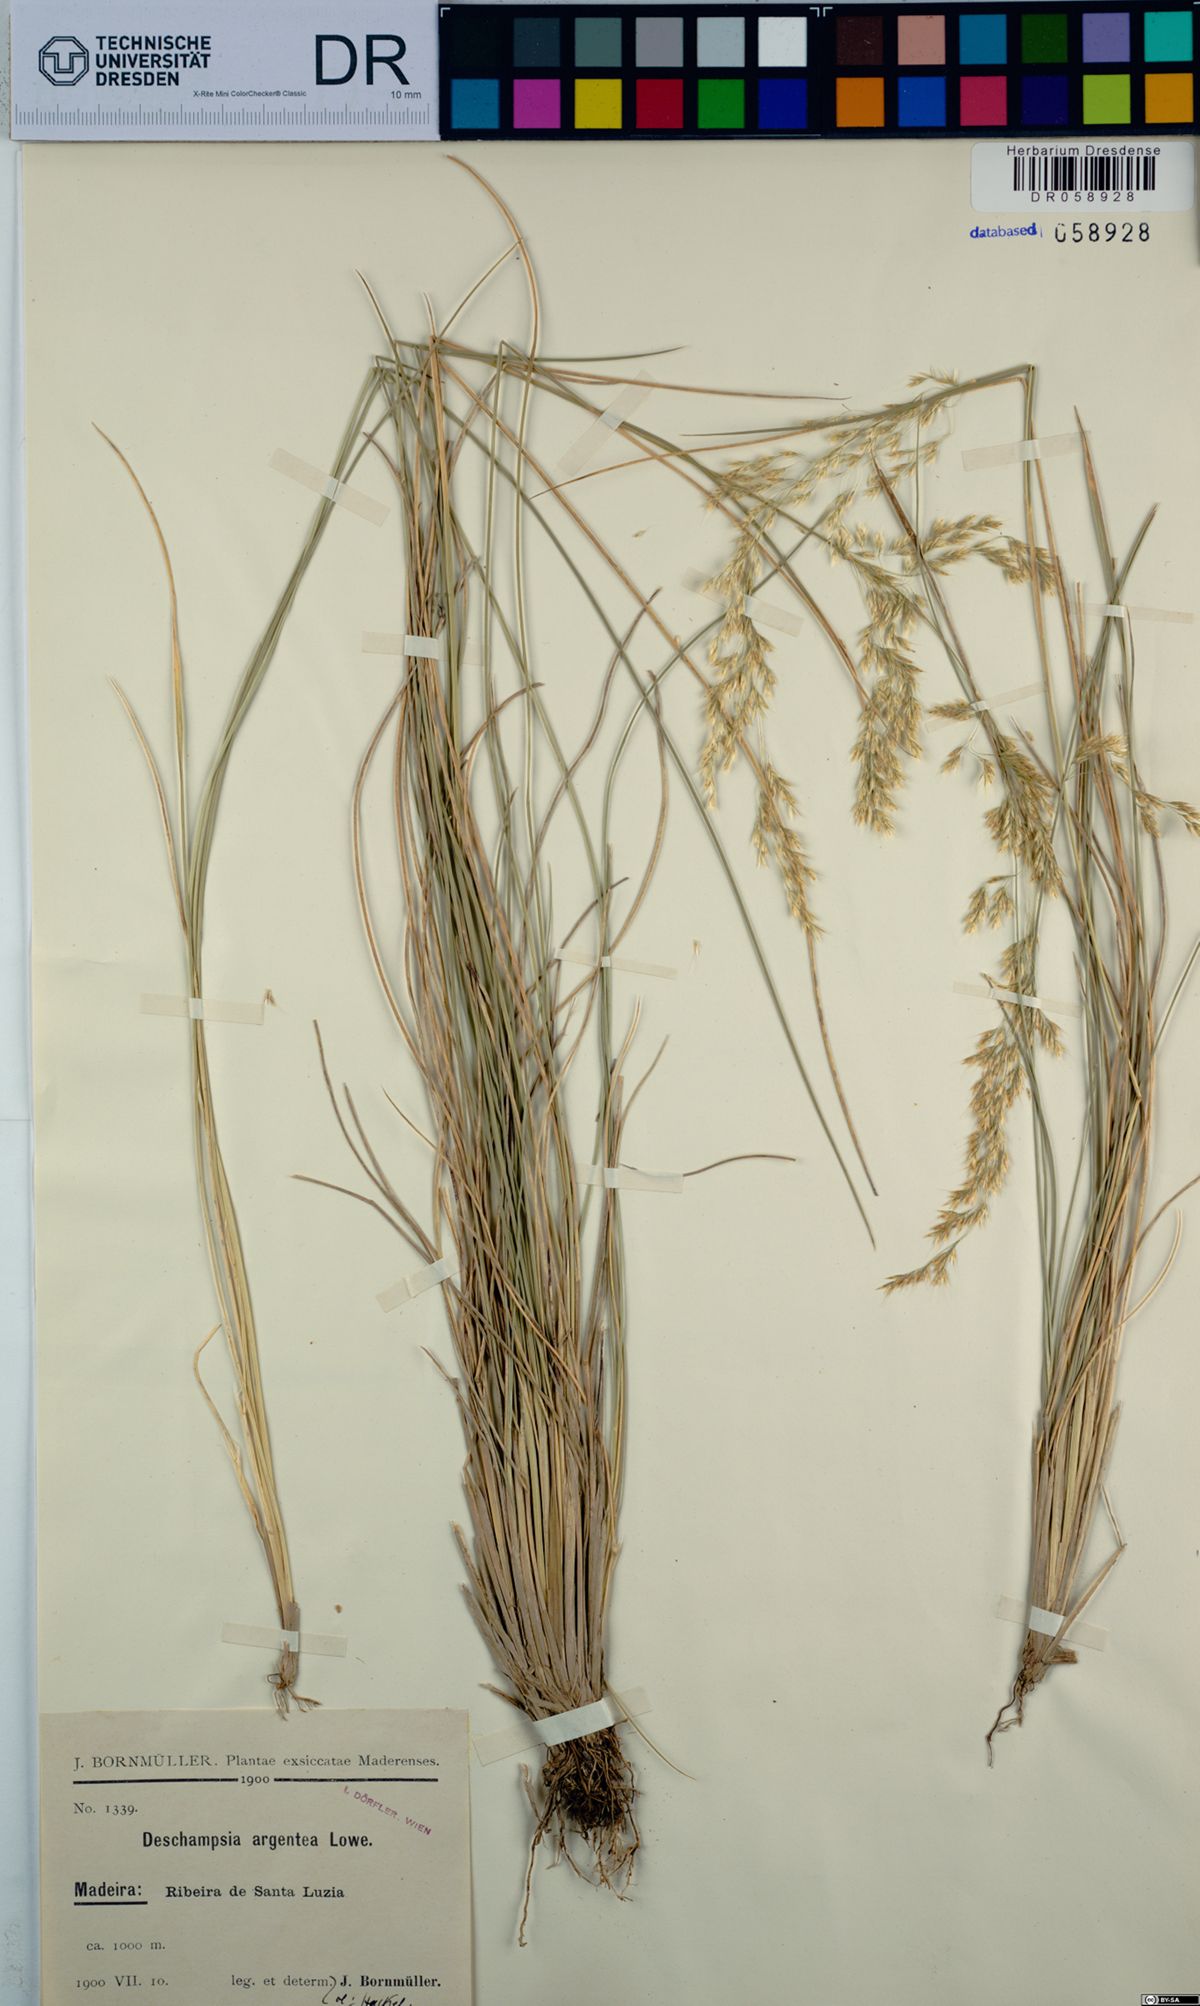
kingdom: Plantae
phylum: Tracheophyta
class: Liliopsida
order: Poales
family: Poaceae
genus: Deschampsia
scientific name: Deschampsia argentea
